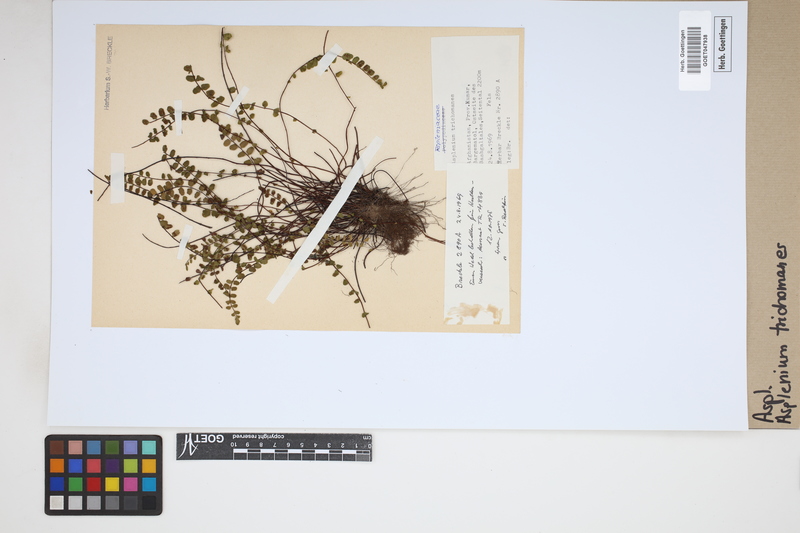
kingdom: Plantae
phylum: Tracheophyta
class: Polypodiopsida
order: Polypodiales
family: Aspleniaceae
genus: Asplenium
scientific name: Asplenium trichomanes
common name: Maidenhair spleenwort
